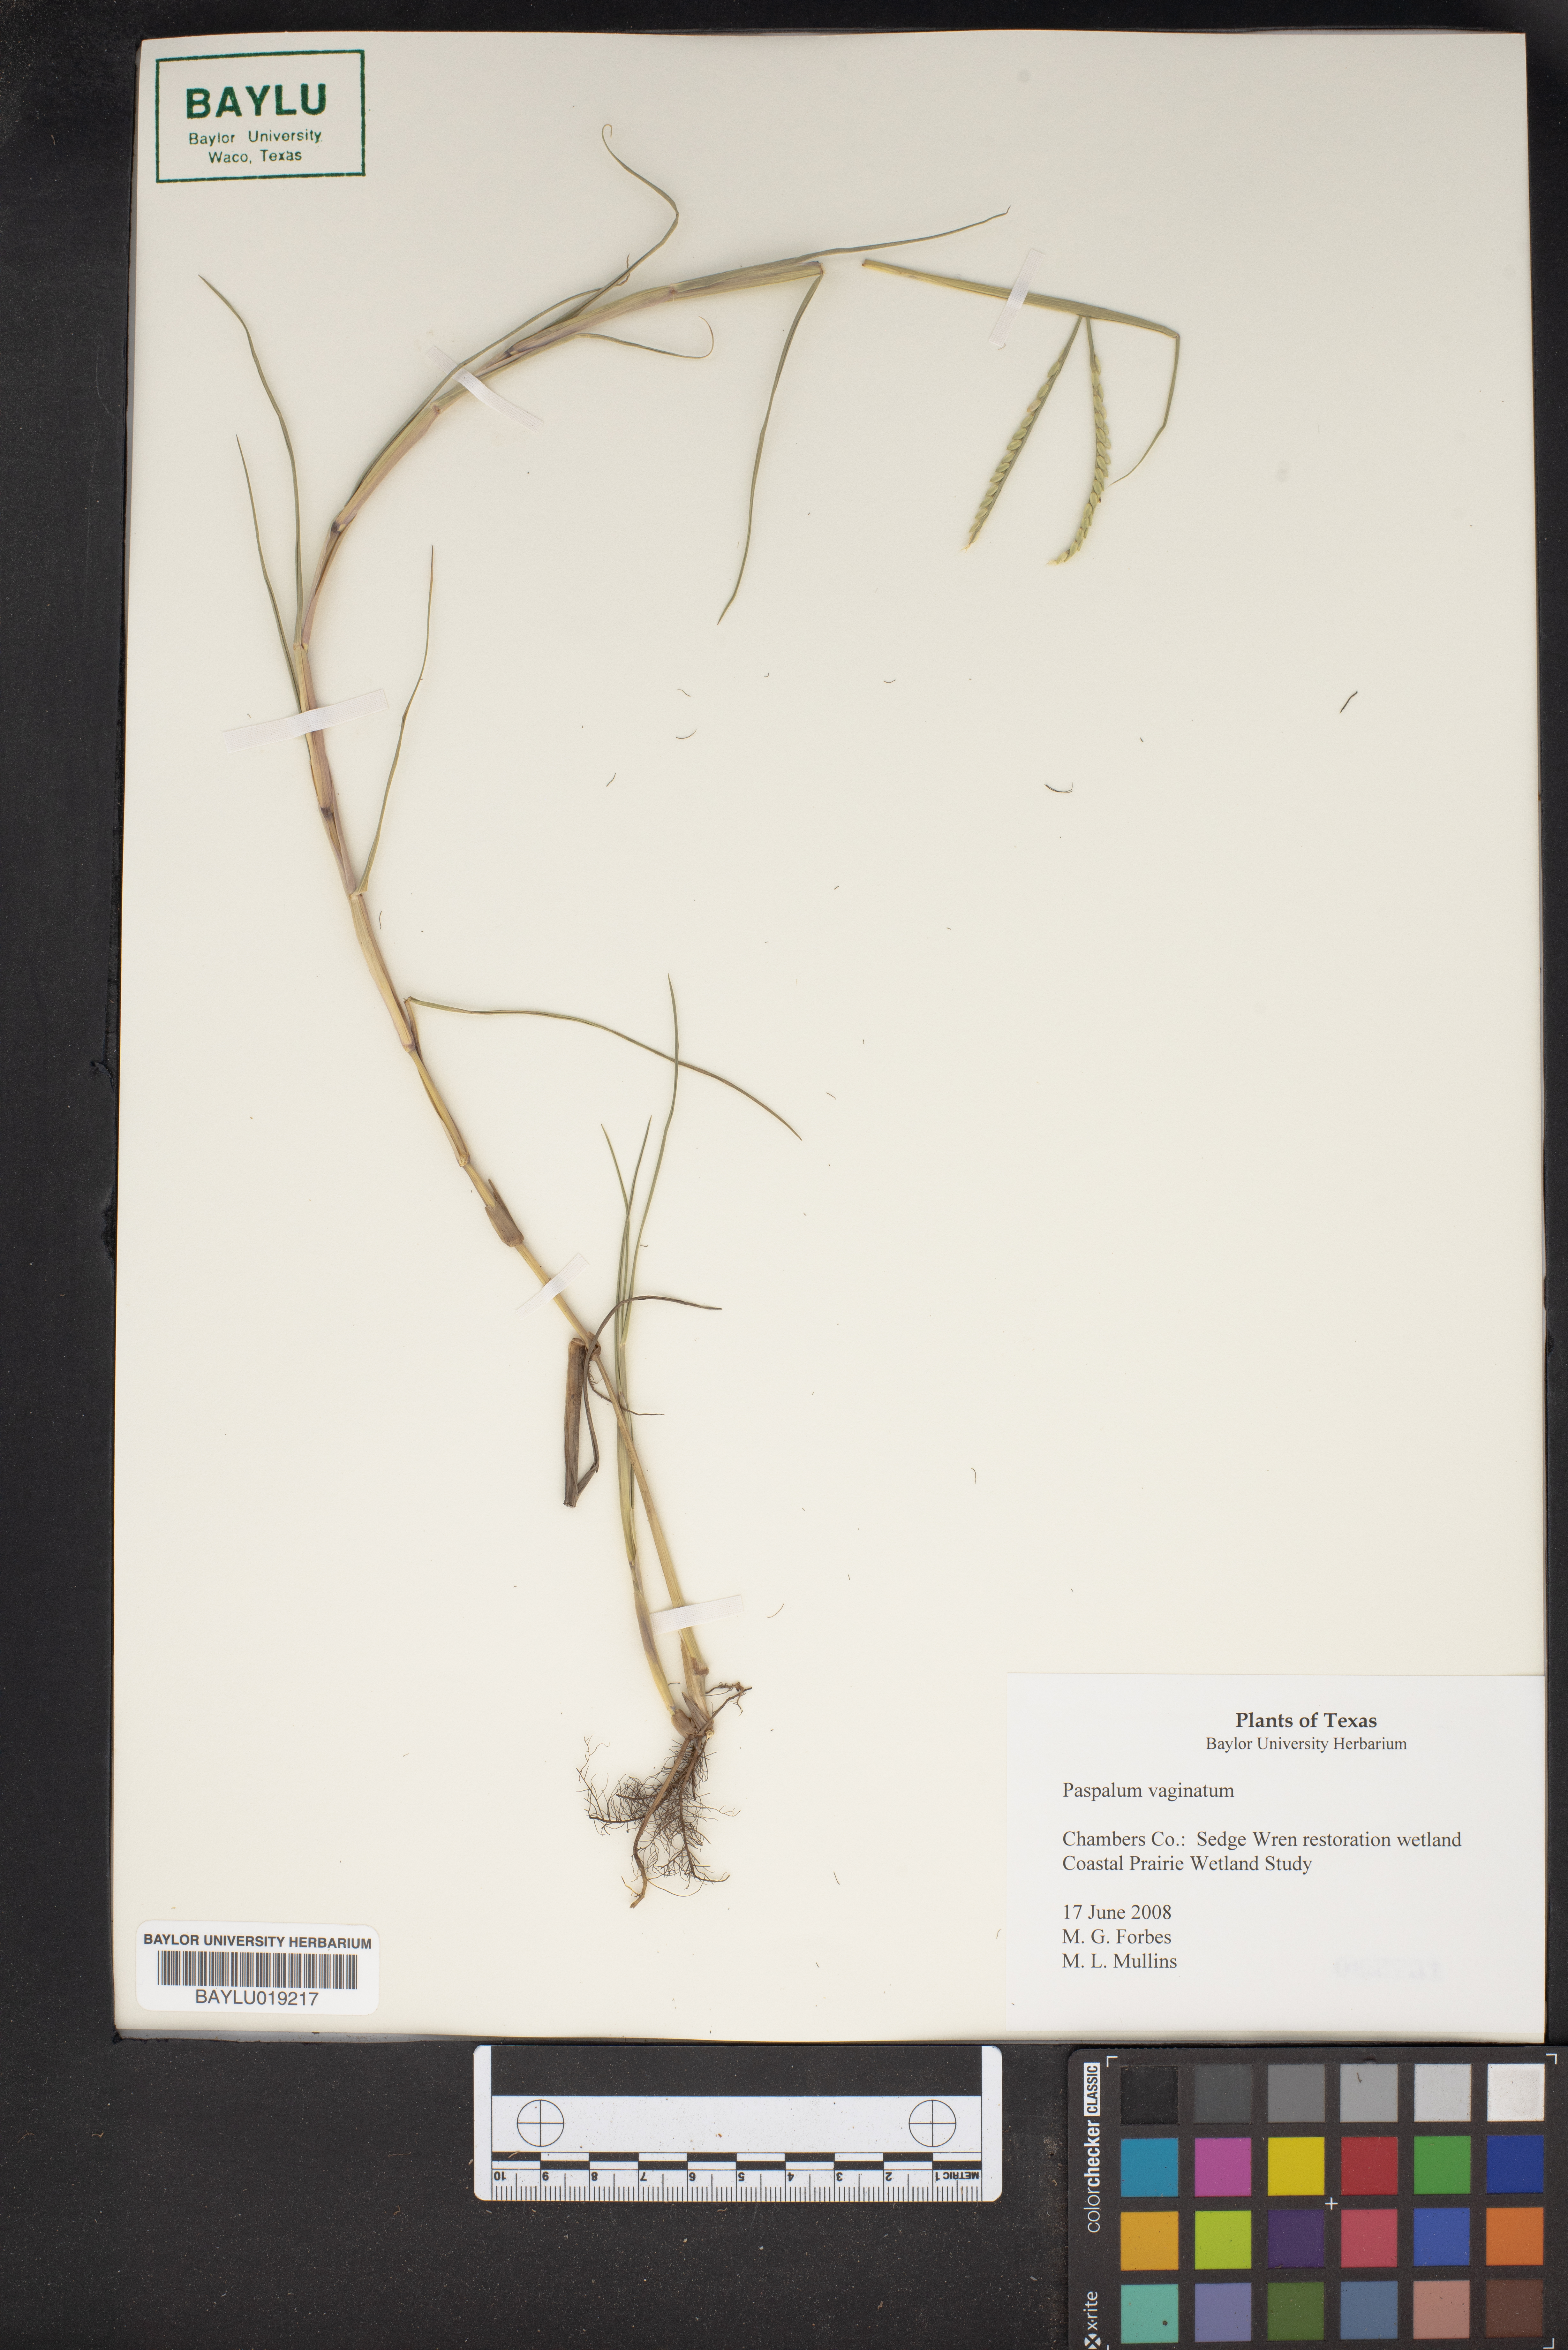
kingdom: Plantae
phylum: Tracheophyta
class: Liliopsida
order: Poales
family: Poaceae
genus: Paspalum
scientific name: Paspalum vaginatum
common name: Seashore paspalum
